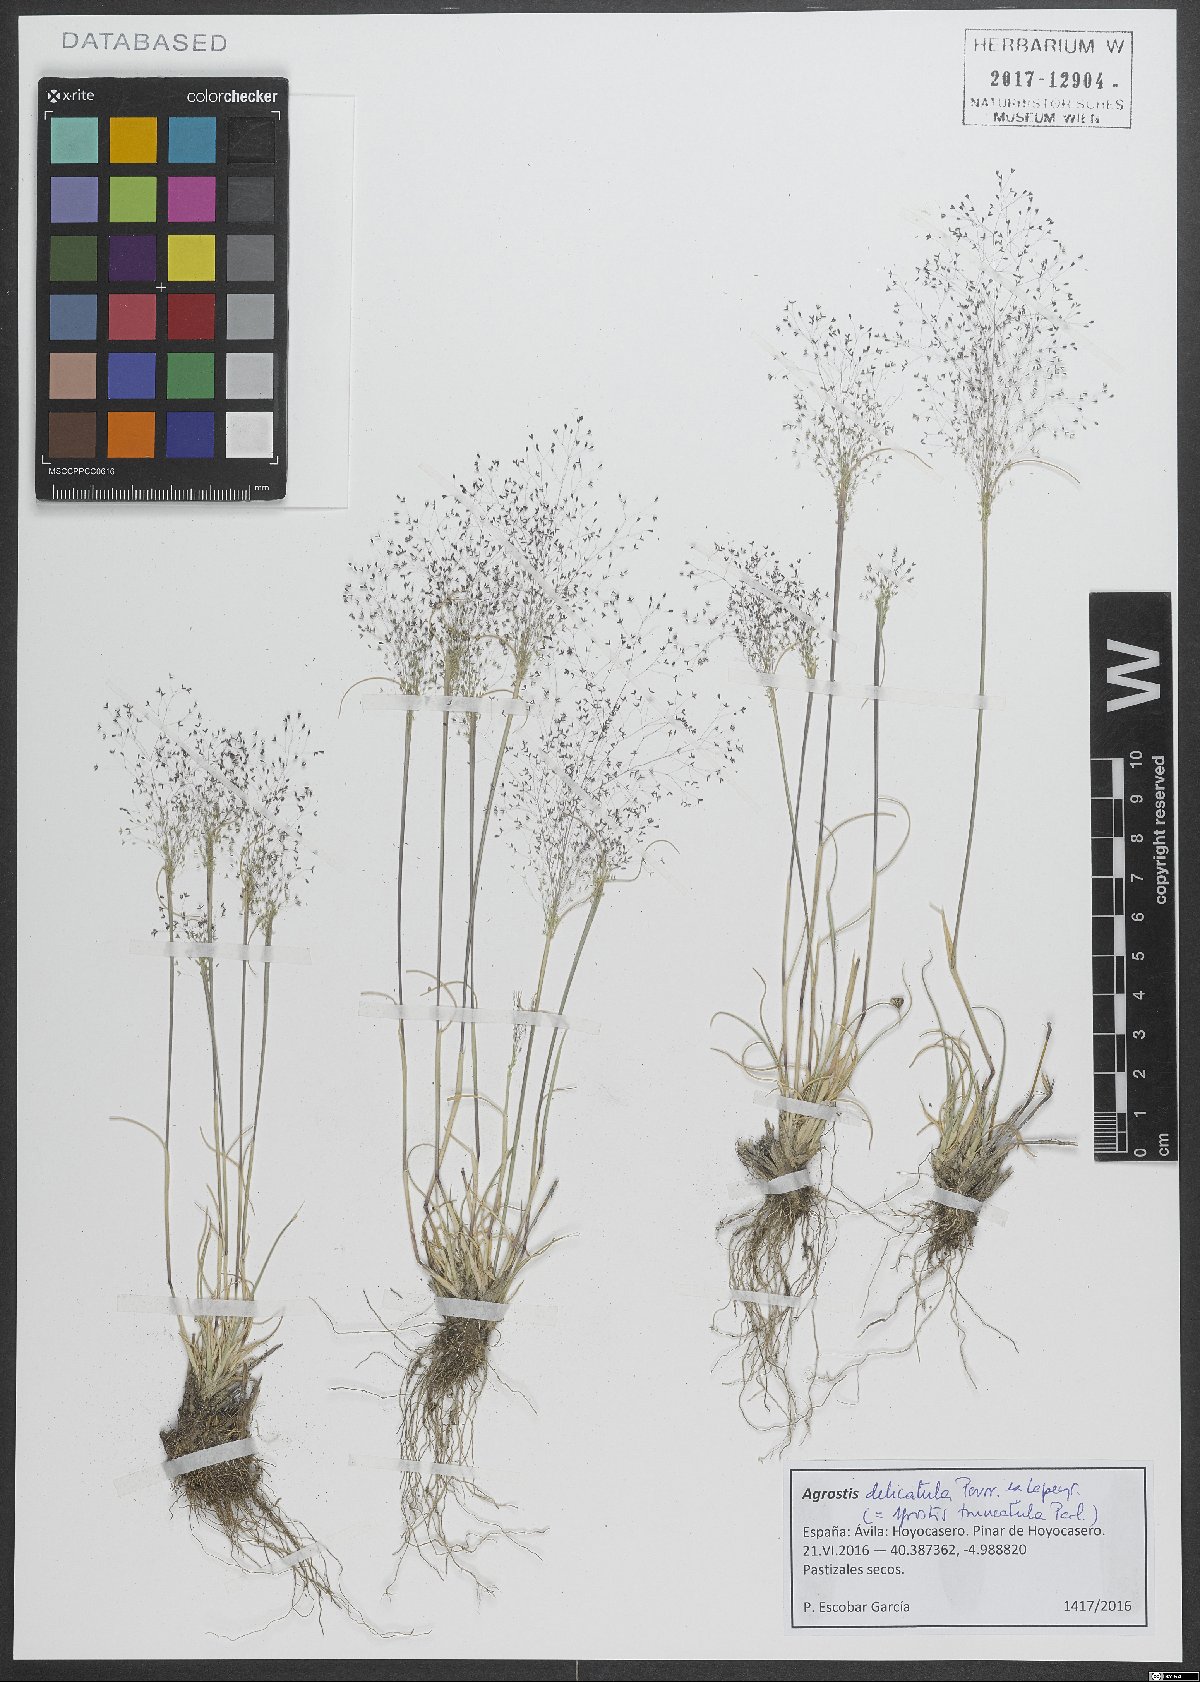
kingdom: Plantae
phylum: Tracheophyta
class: Liliopsida
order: Poales
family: Poaceae
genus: Agrostis
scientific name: Agrostis castellana
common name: Highland bent
